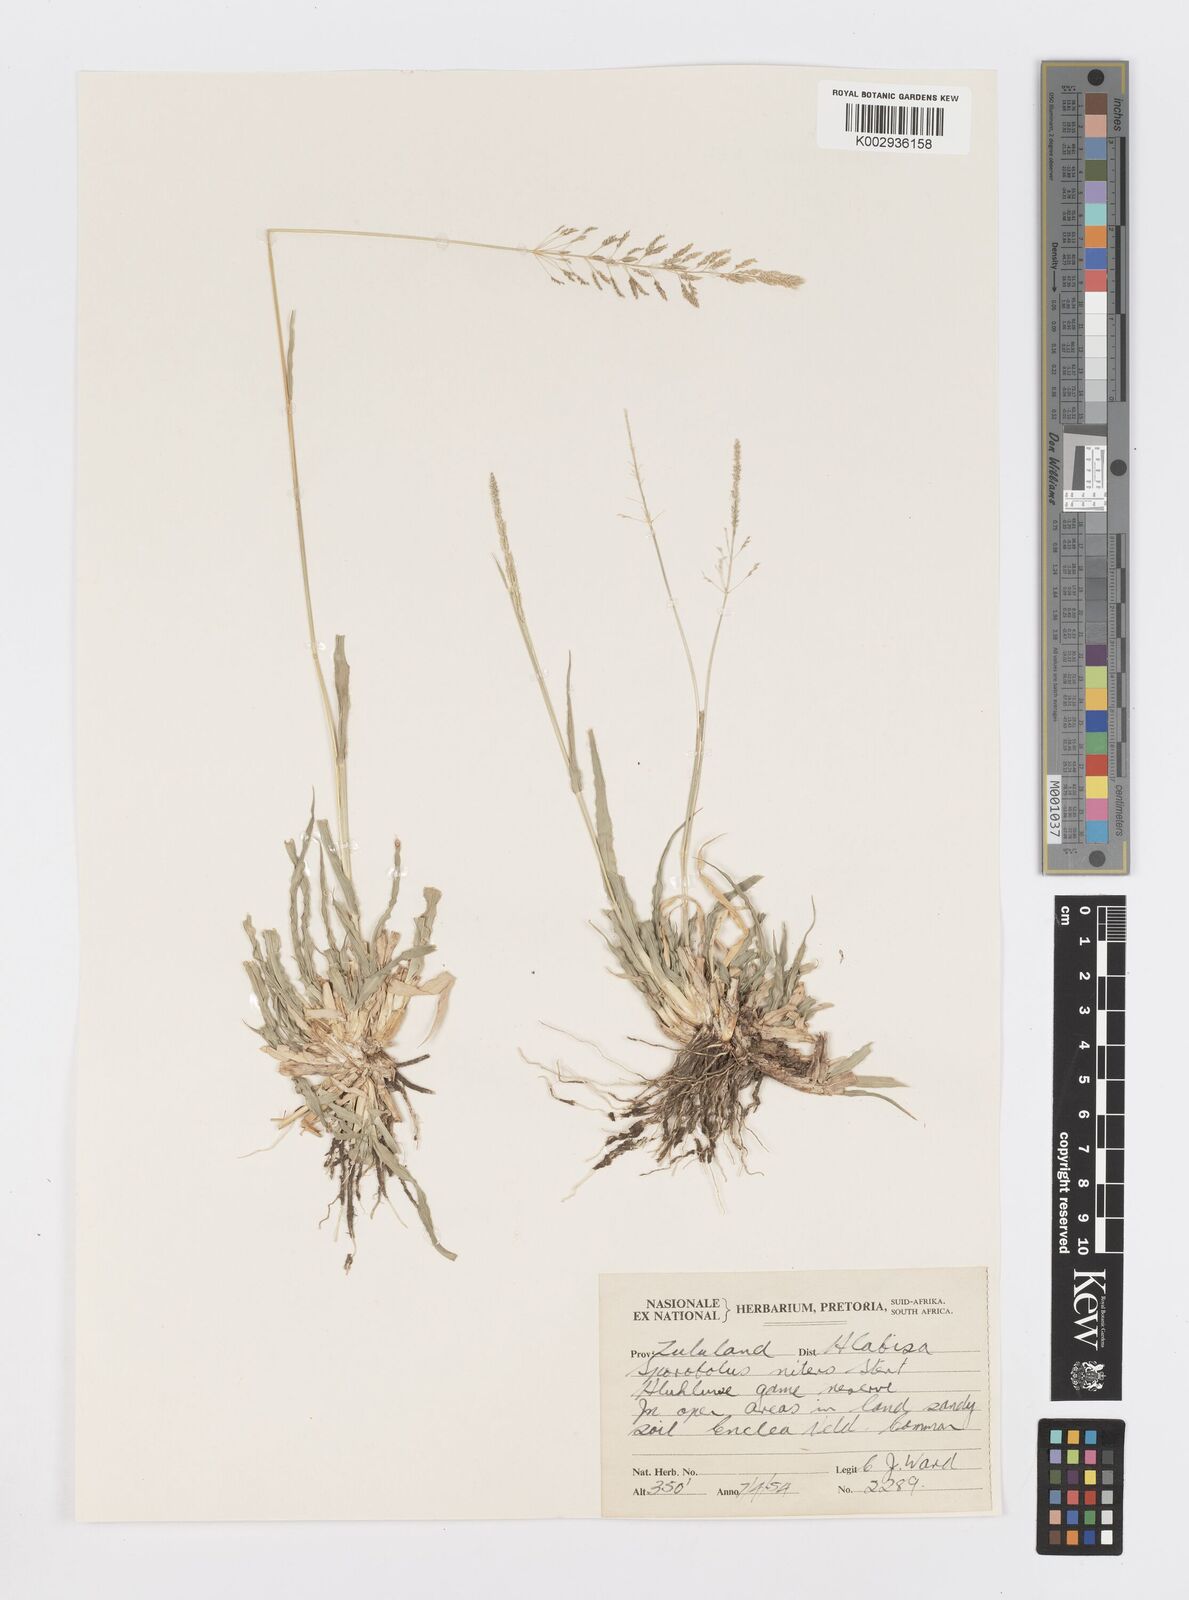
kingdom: Plantae
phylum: Tracheophyta
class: Liliopsida
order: Poales
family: Poaceae
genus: Sporobolus
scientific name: Sporobolus nitens
